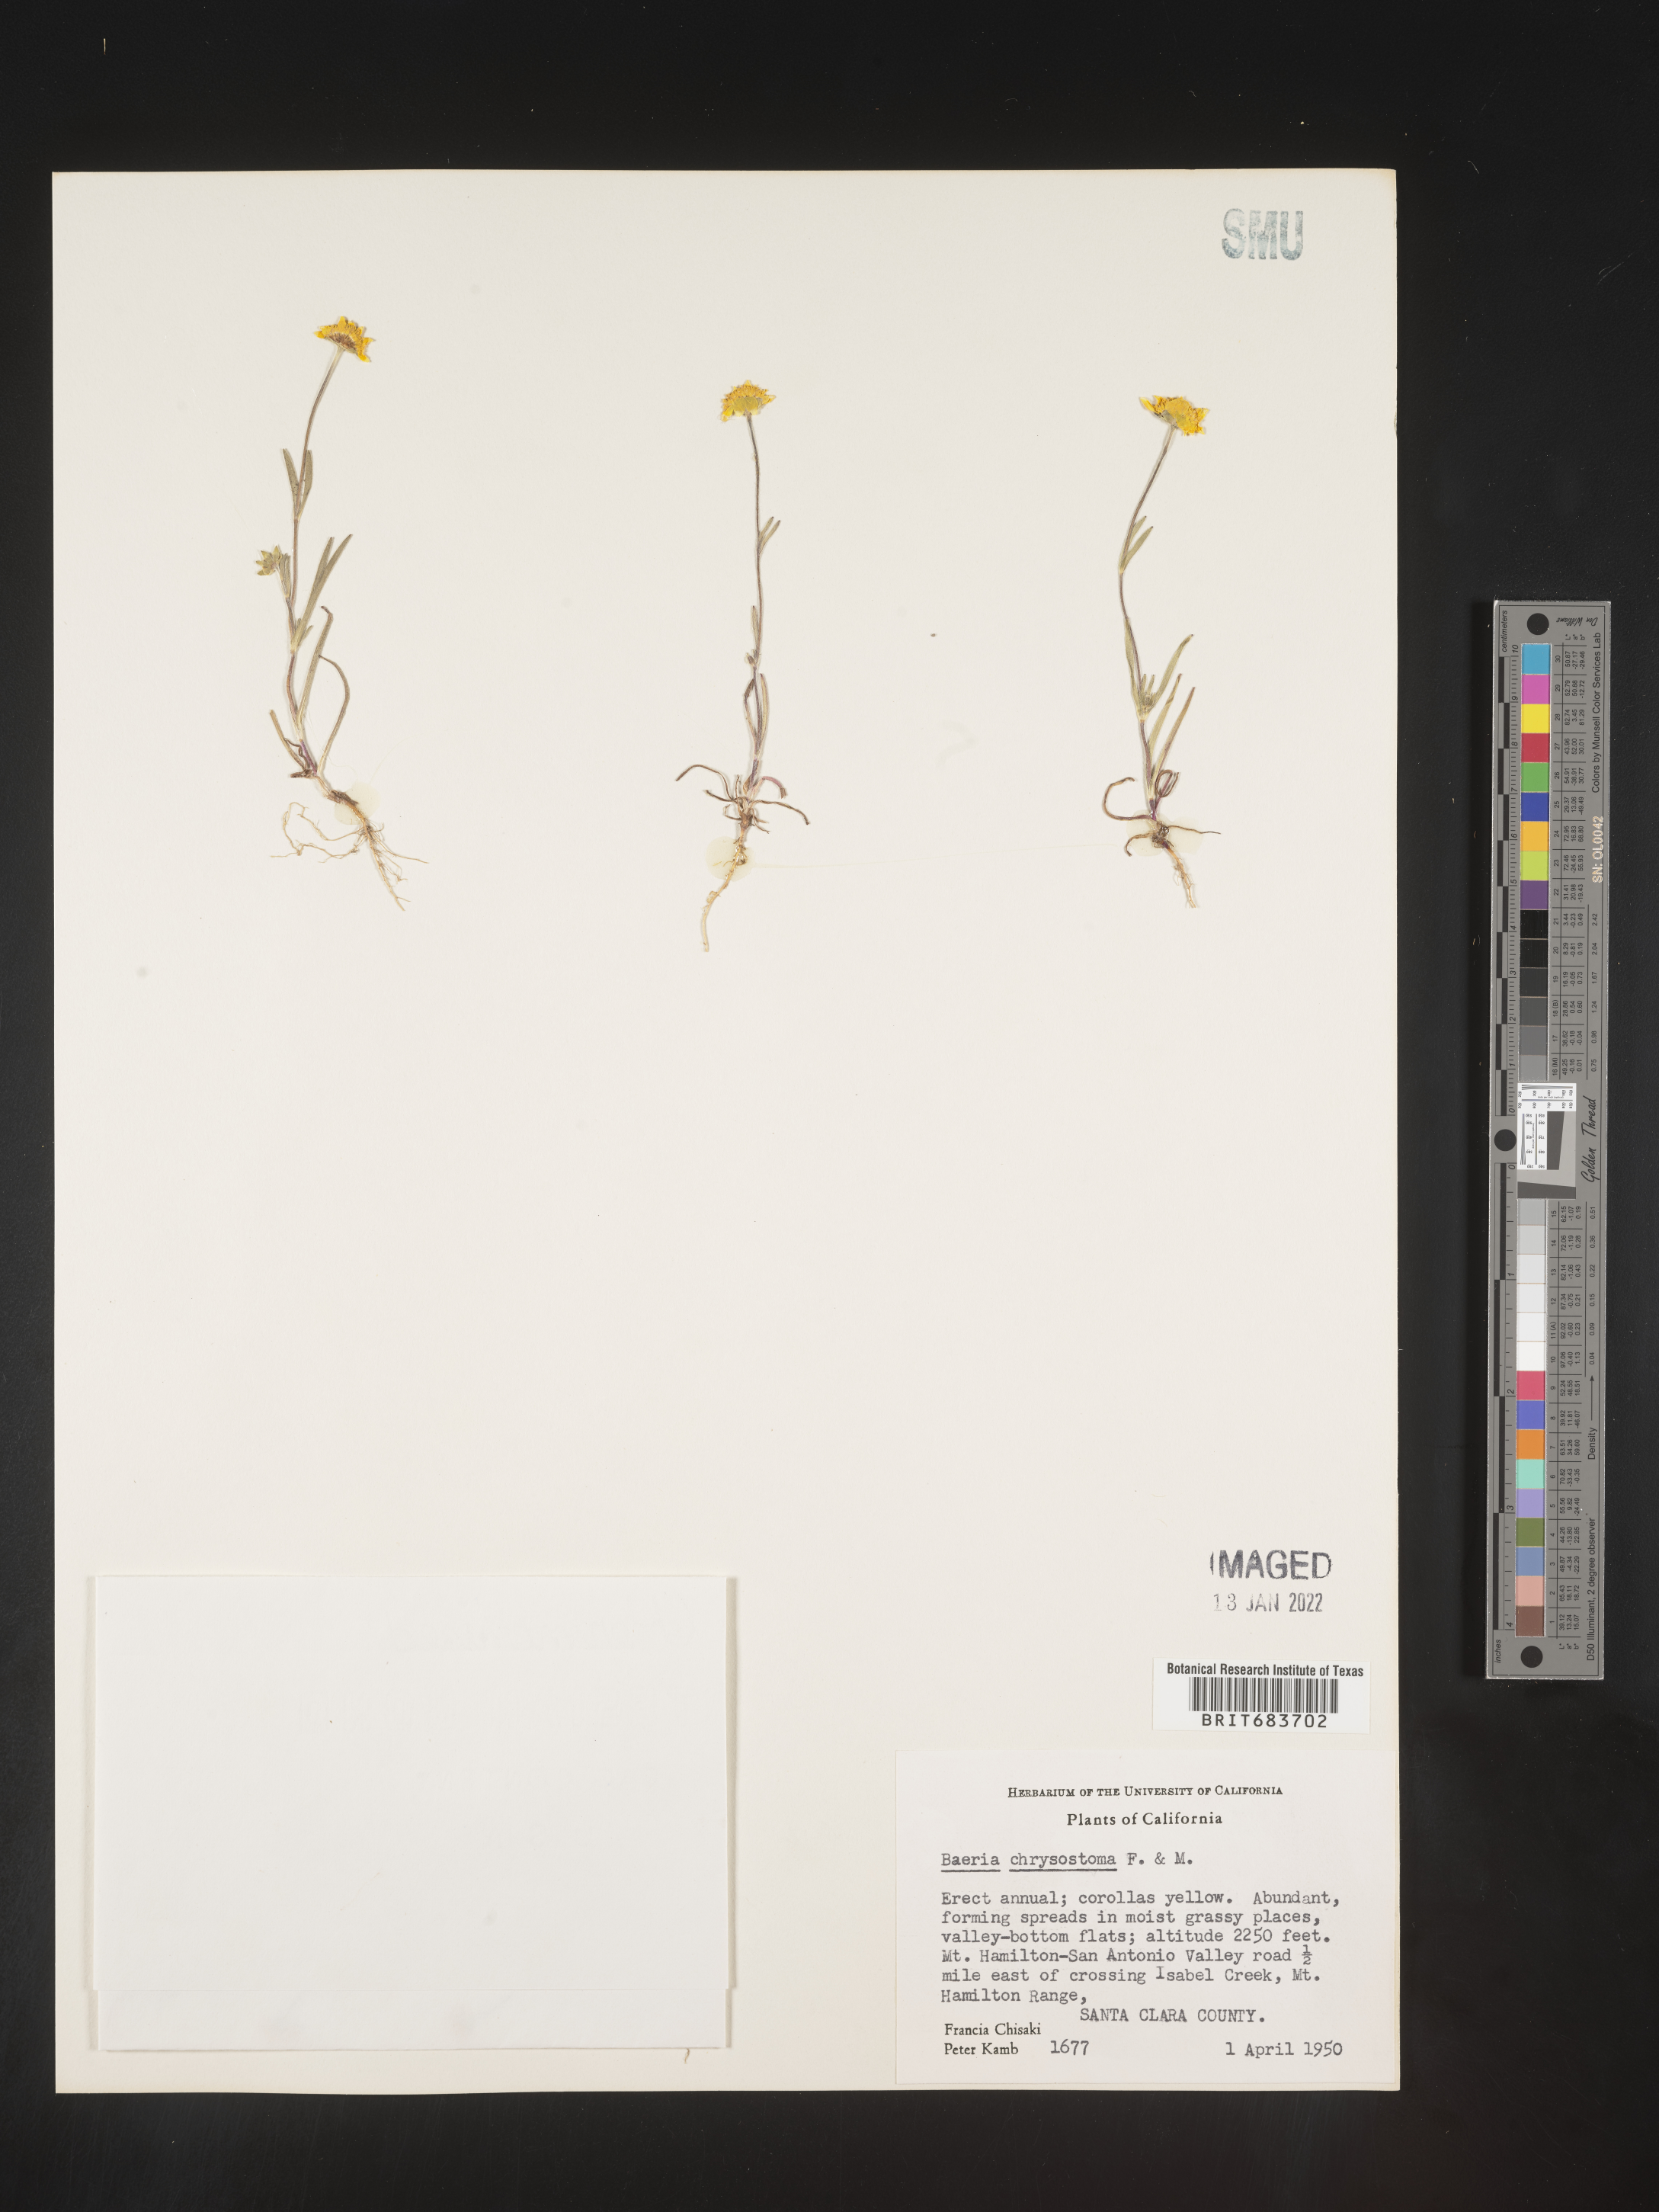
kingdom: Plantae
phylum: Tracheophyta
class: Magnoliopsida
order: Asterales
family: Asteraceae
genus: Lasthenia
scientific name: Lasthenia
